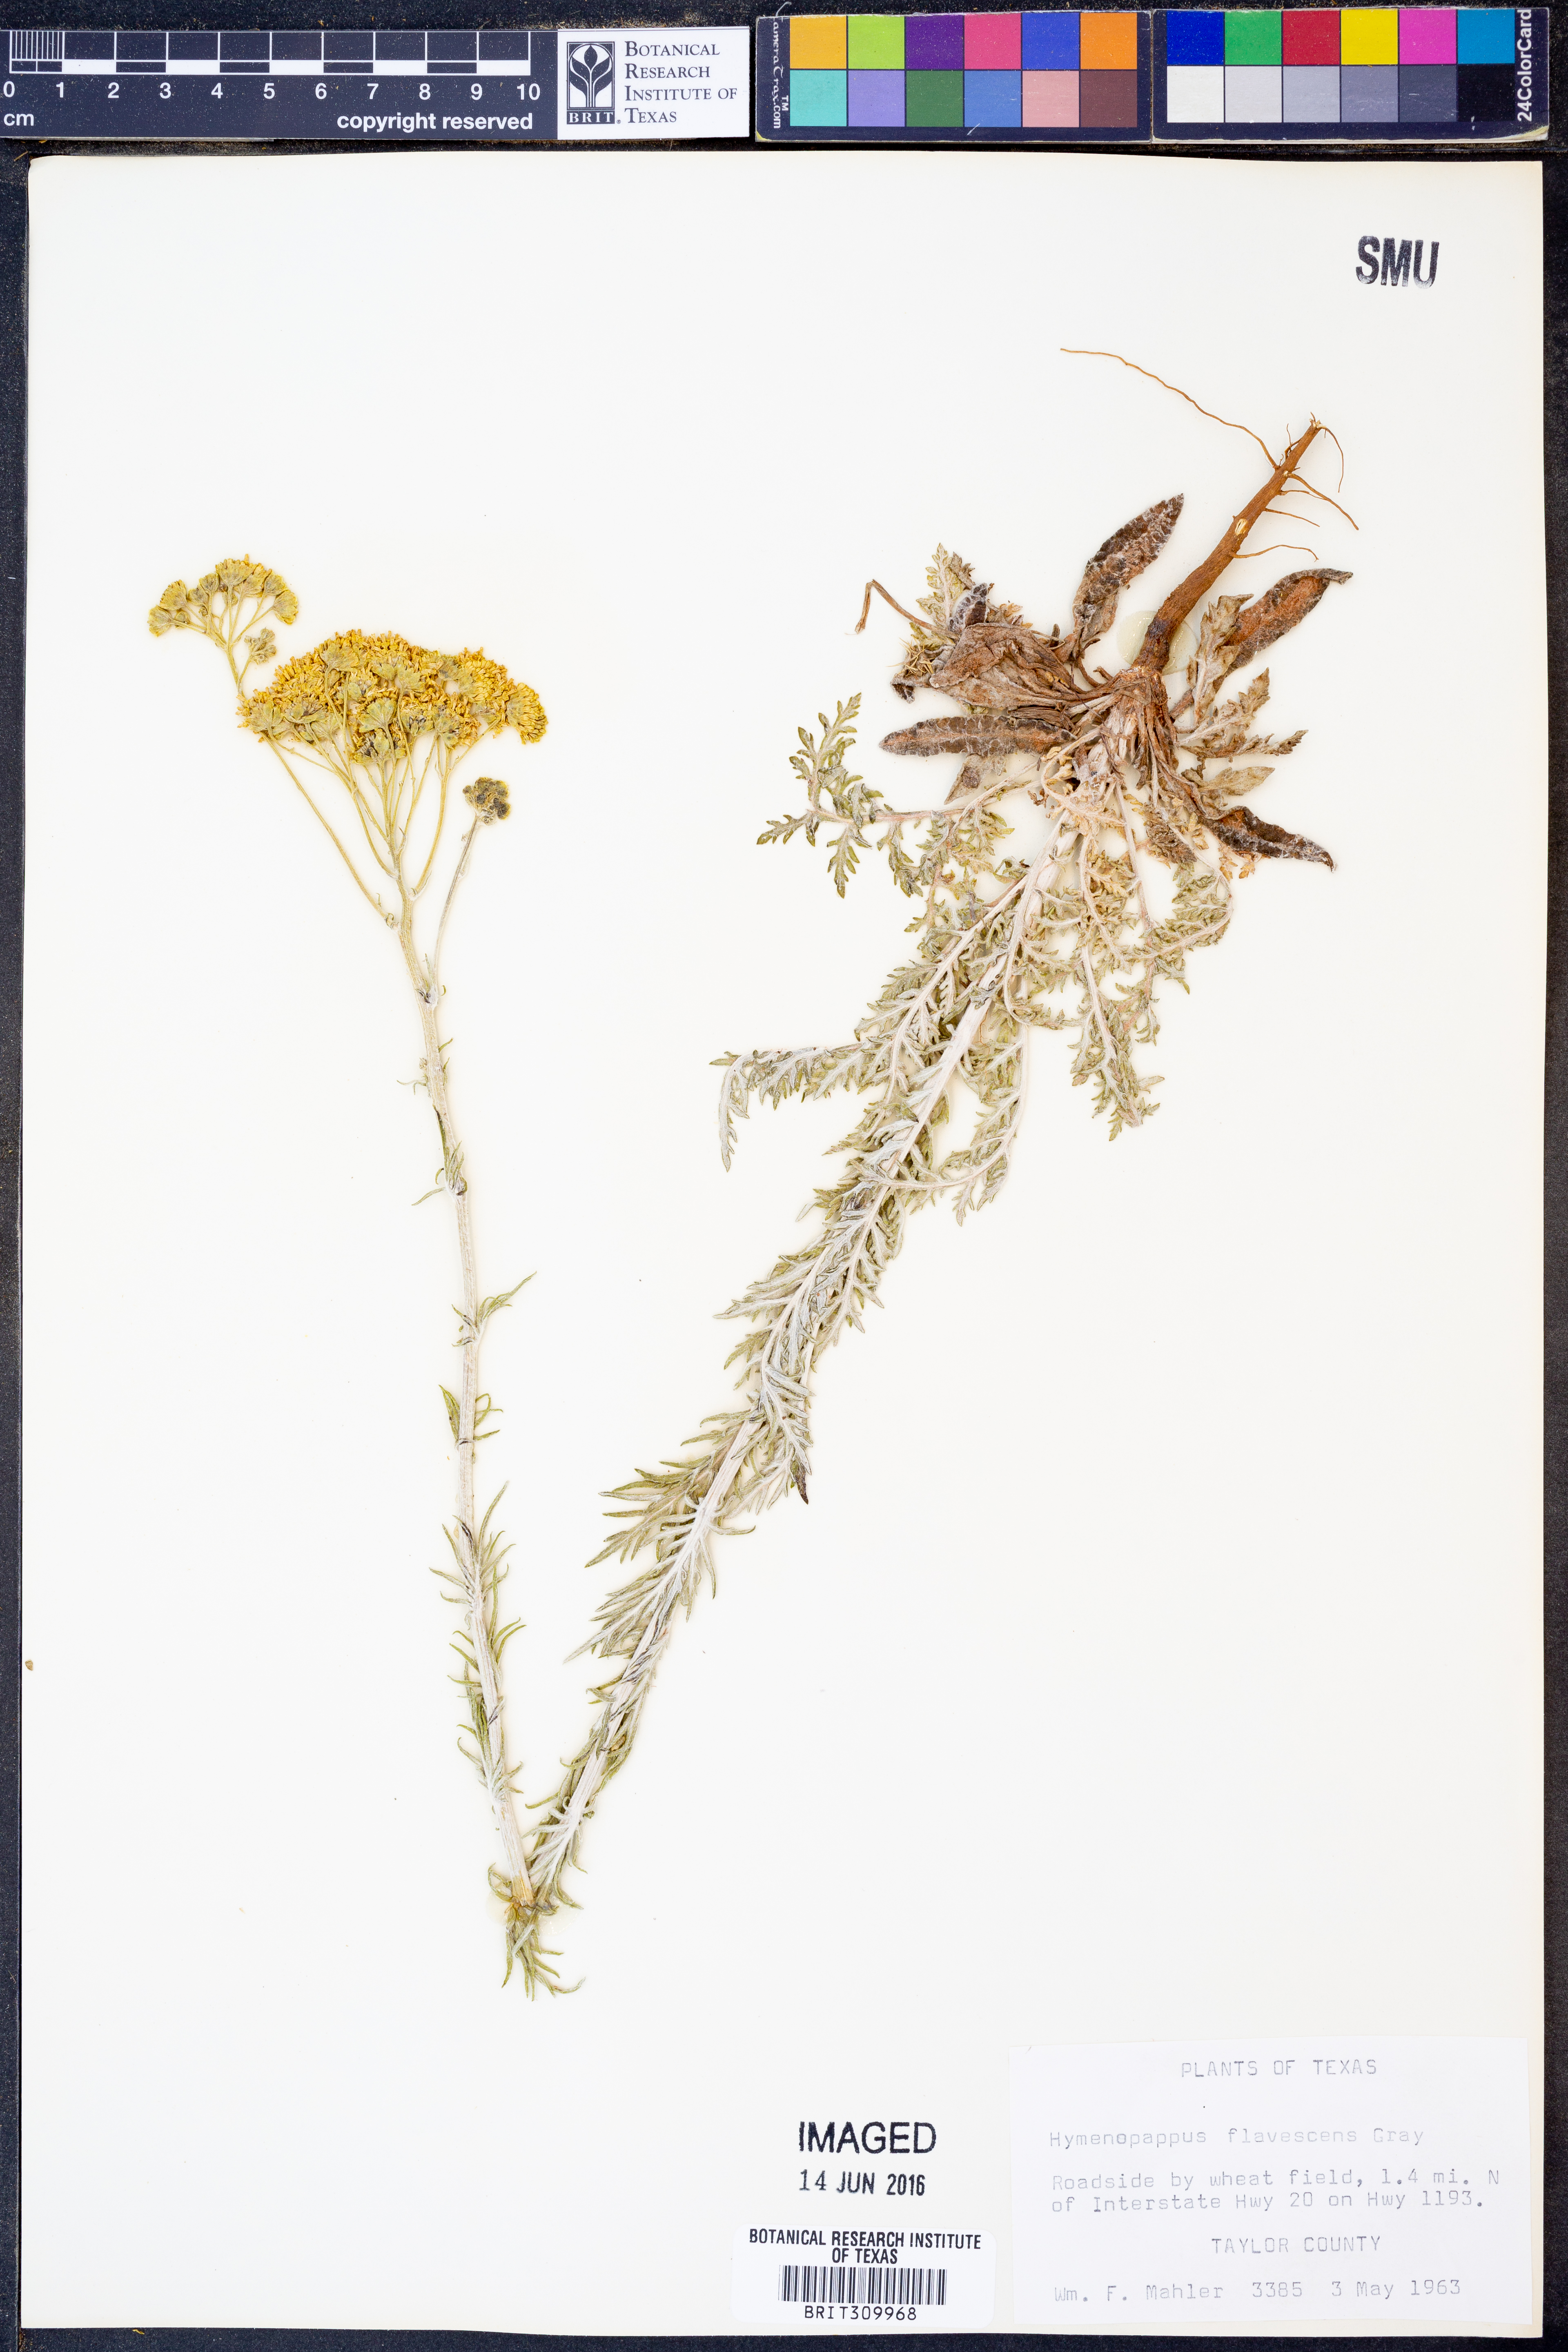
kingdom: Plantae
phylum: Tracheophyta
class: Magnoliopsida
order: Asterales
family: Asteraceae
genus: Hymenopappus
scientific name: Hymenopappus flavescens
